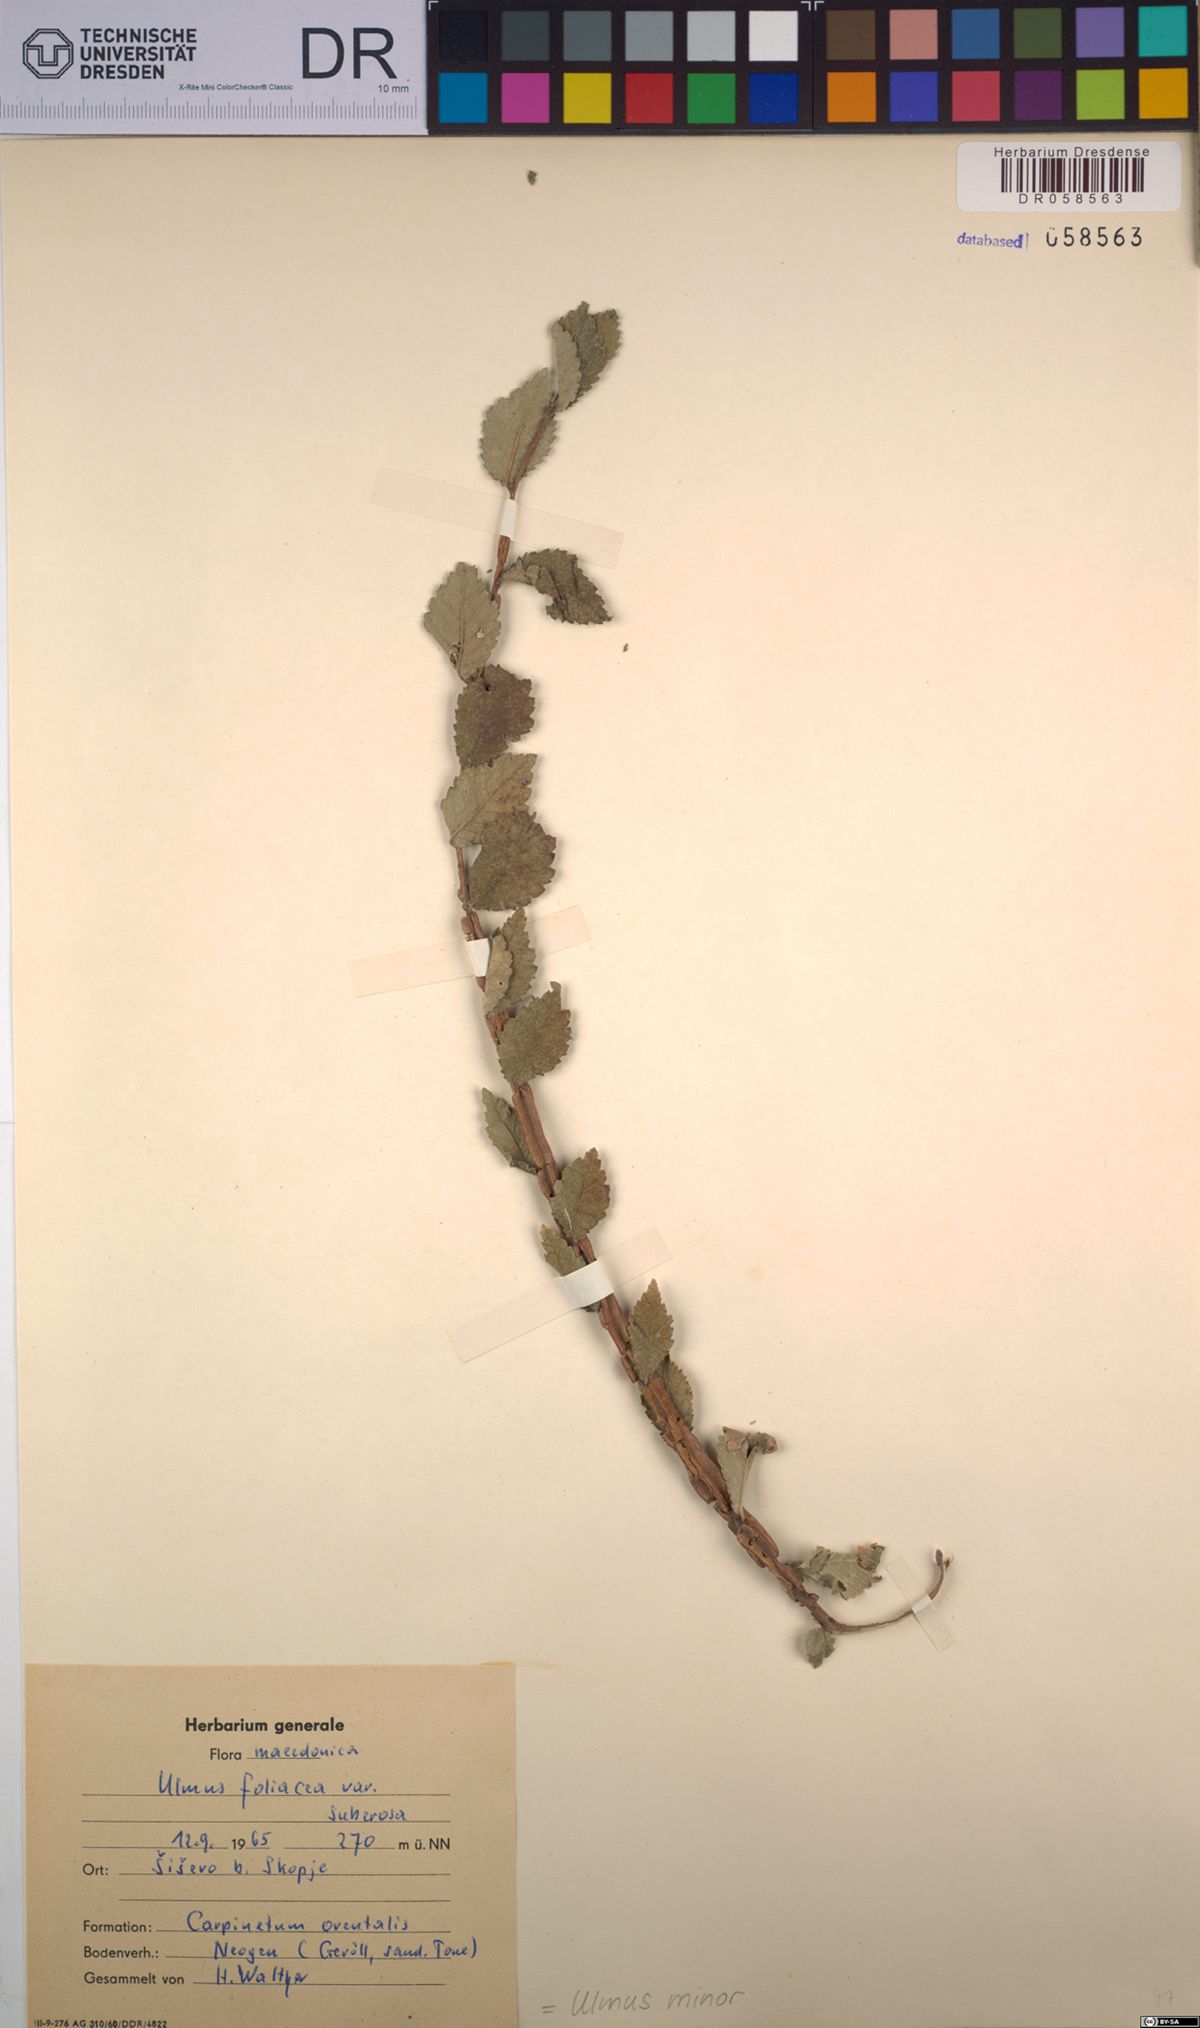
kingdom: Plantae
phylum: Tracheophyta
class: Magnoliopsida
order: Rosales
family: Ulmaceae
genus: Ulmus
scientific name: Ulmus minor
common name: Small-leaved elm
